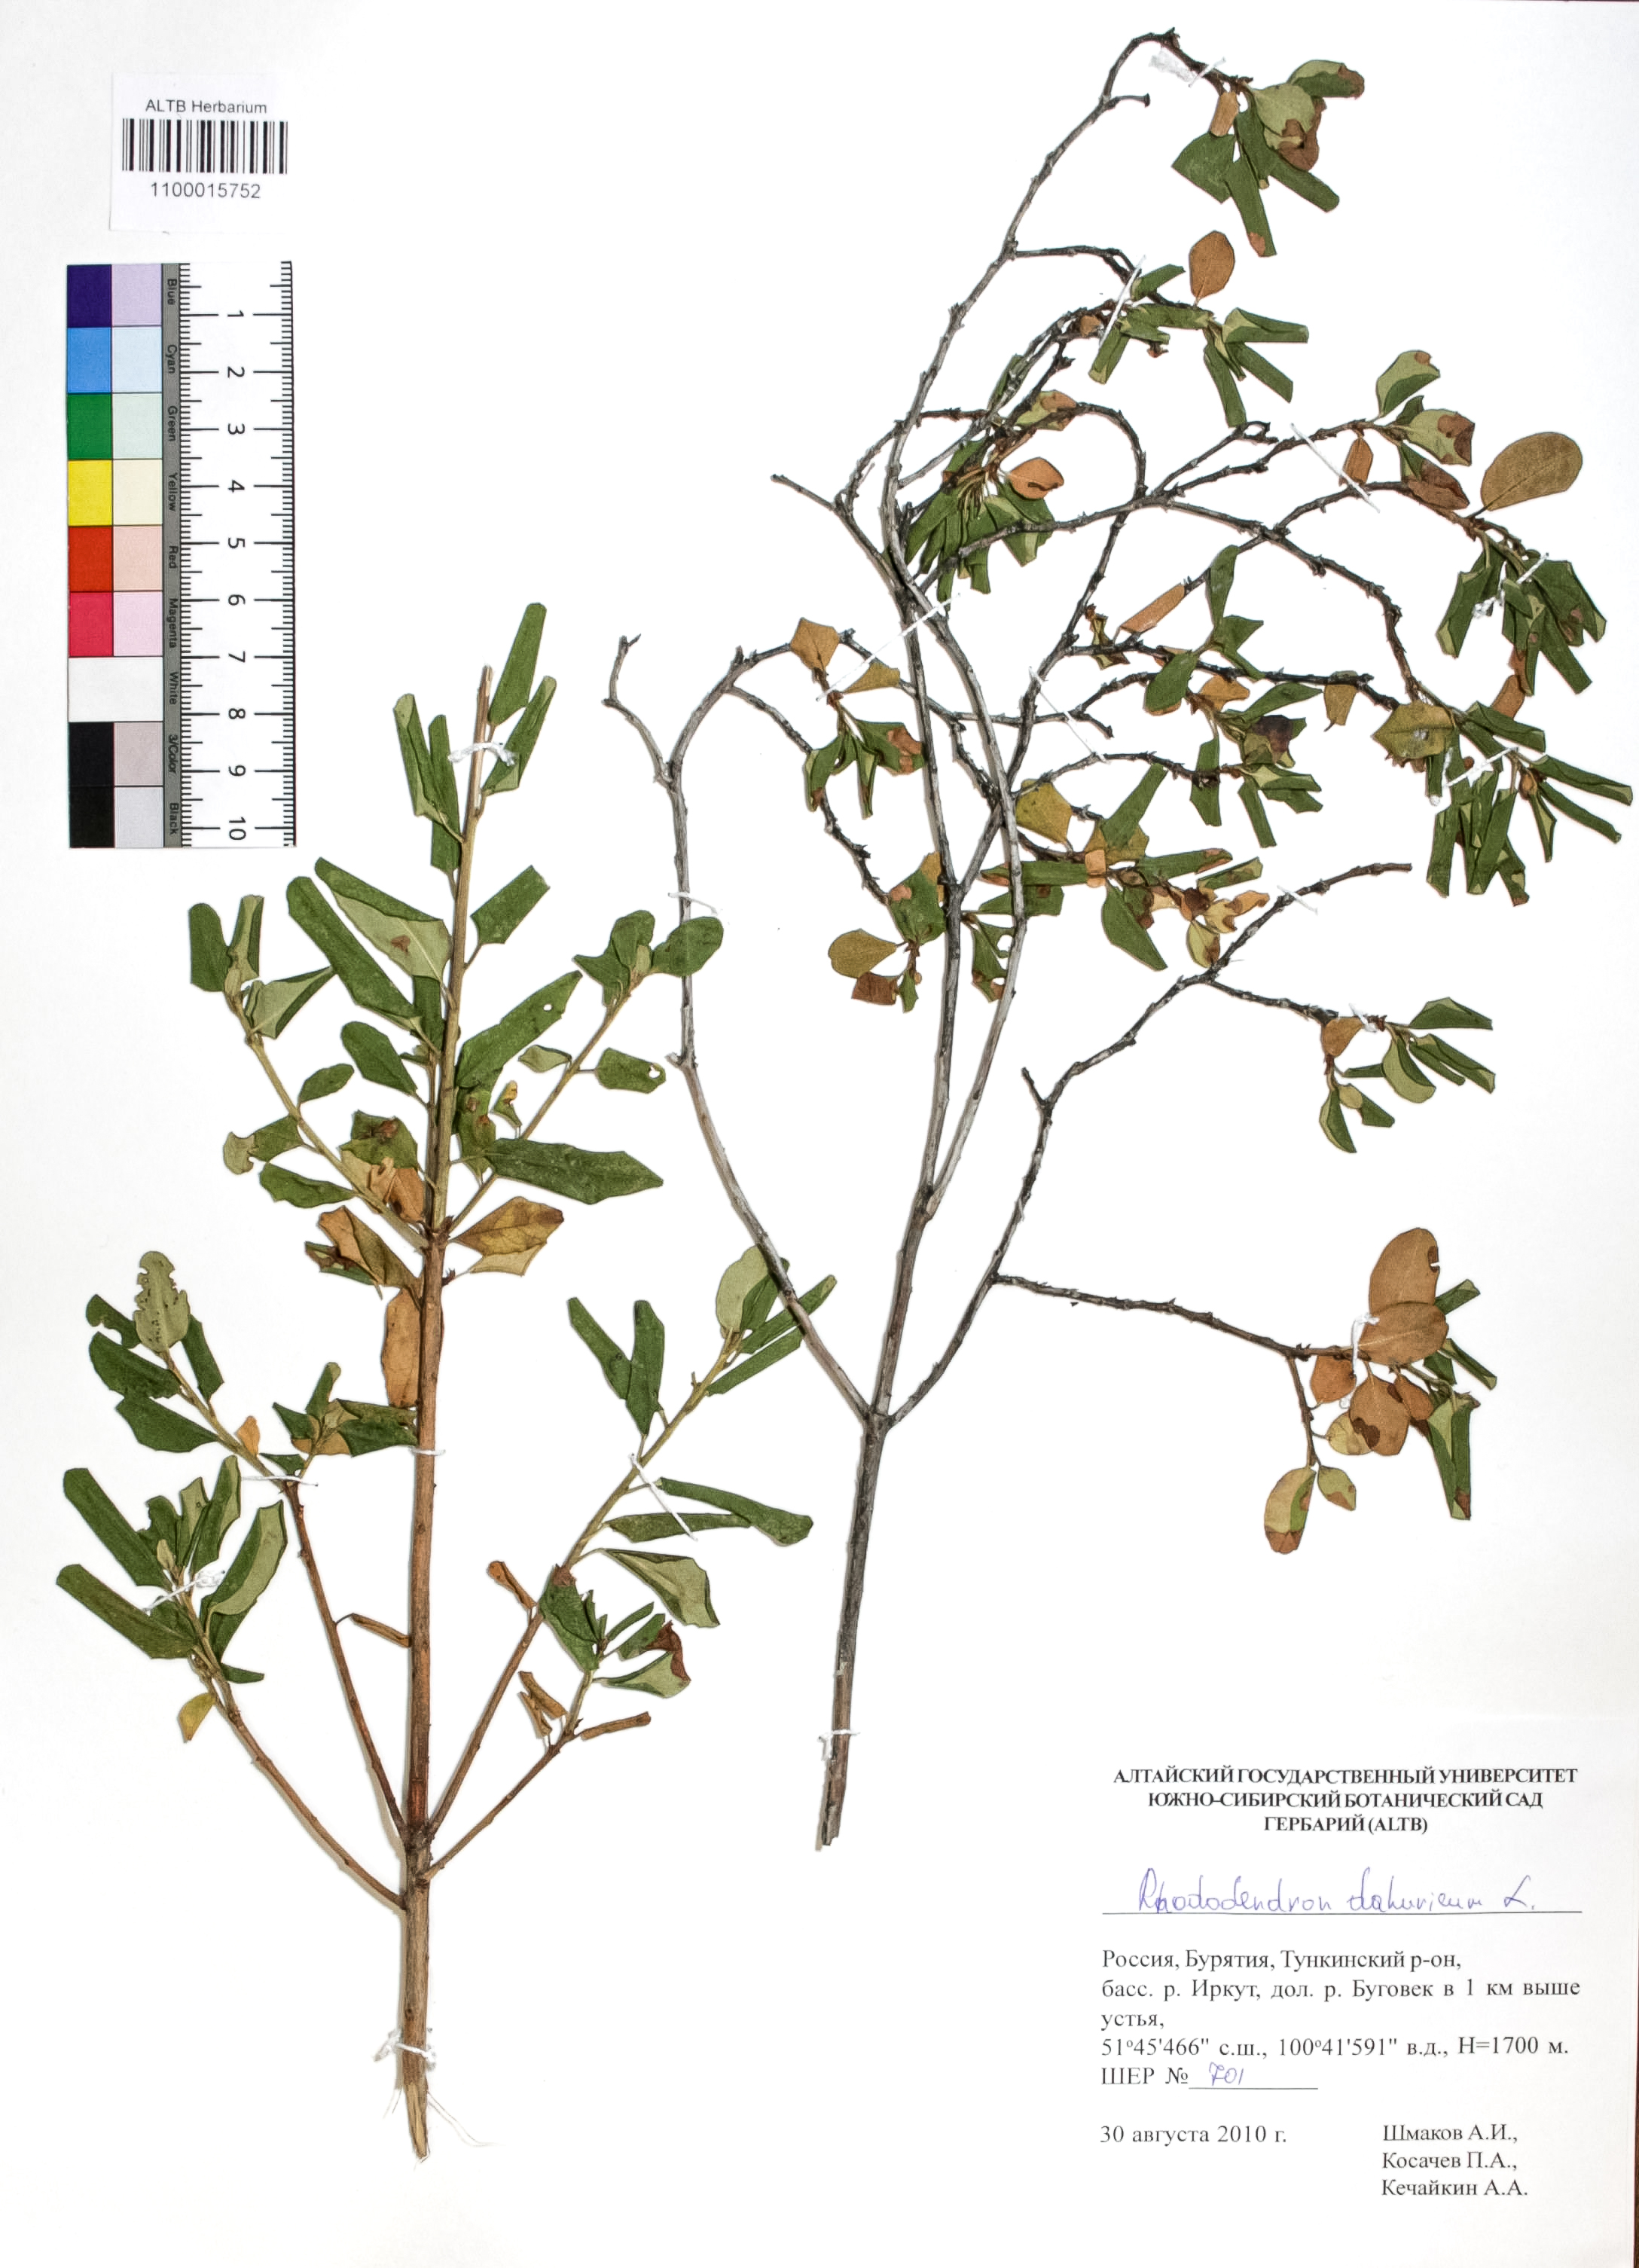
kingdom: Plantae
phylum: Tracheophyta
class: Magnoliopsida
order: Ericales
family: Ericaceae
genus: Rhododendron
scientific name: Rhododendron dahuricum
